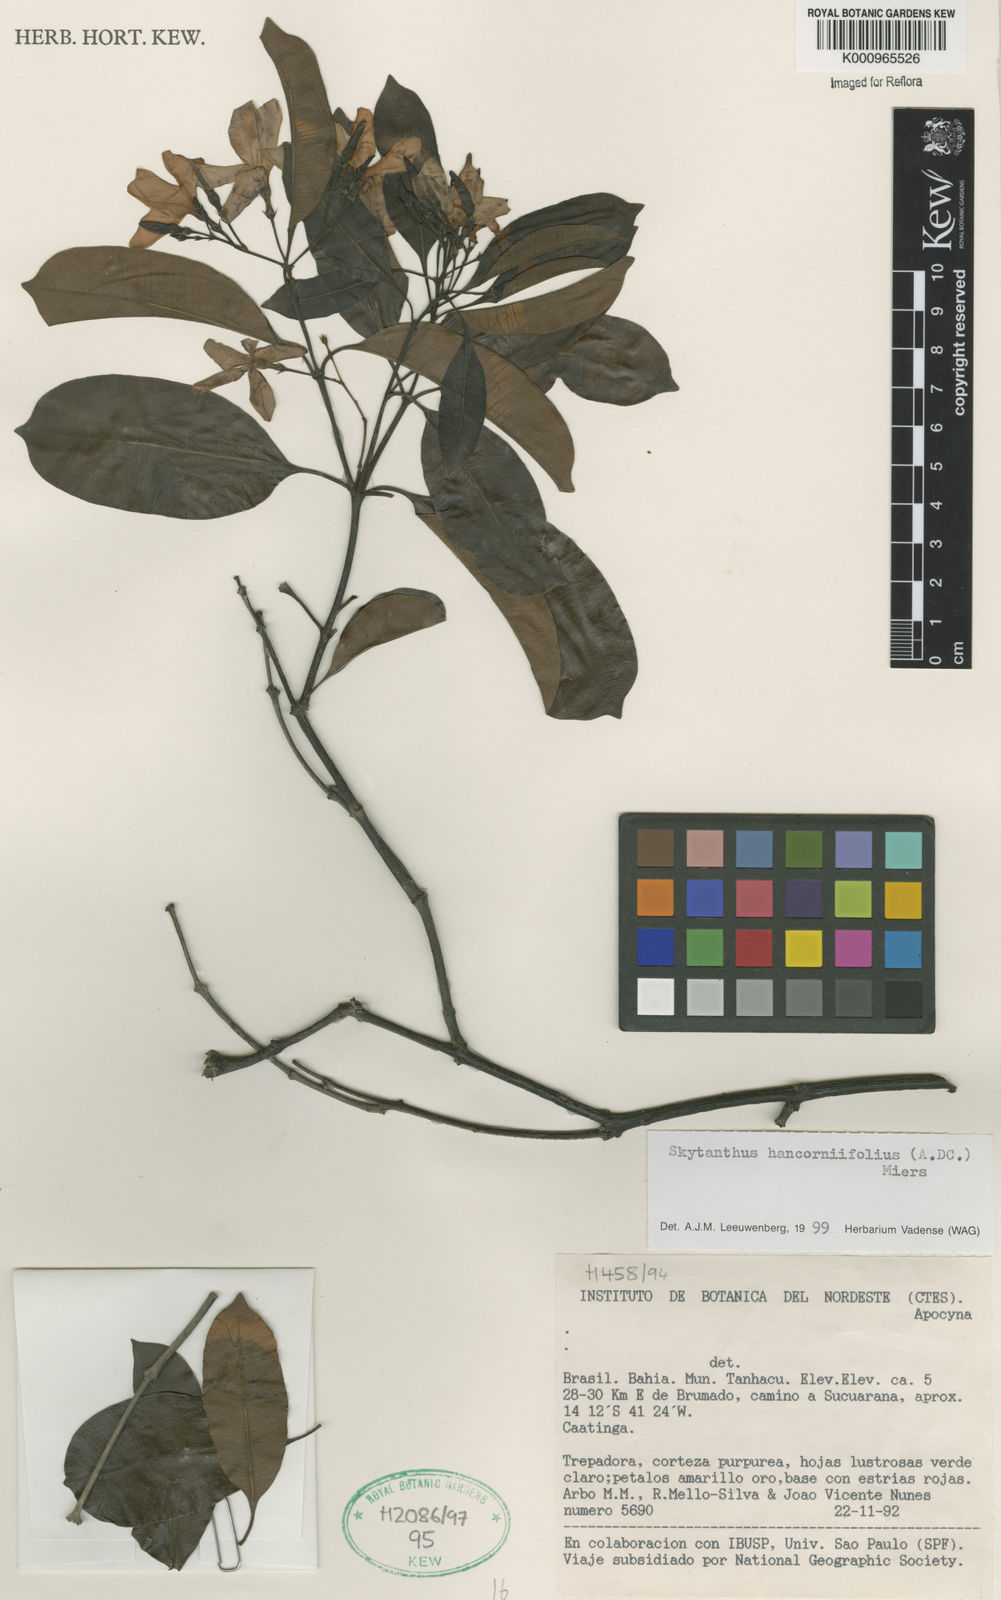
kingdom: Plantae
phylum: Tracheophyta
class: Magnoliopsida
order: Gentianales
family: Apocynaceae
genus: Skytanthus
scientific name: Skytanthus hancorniifolius
